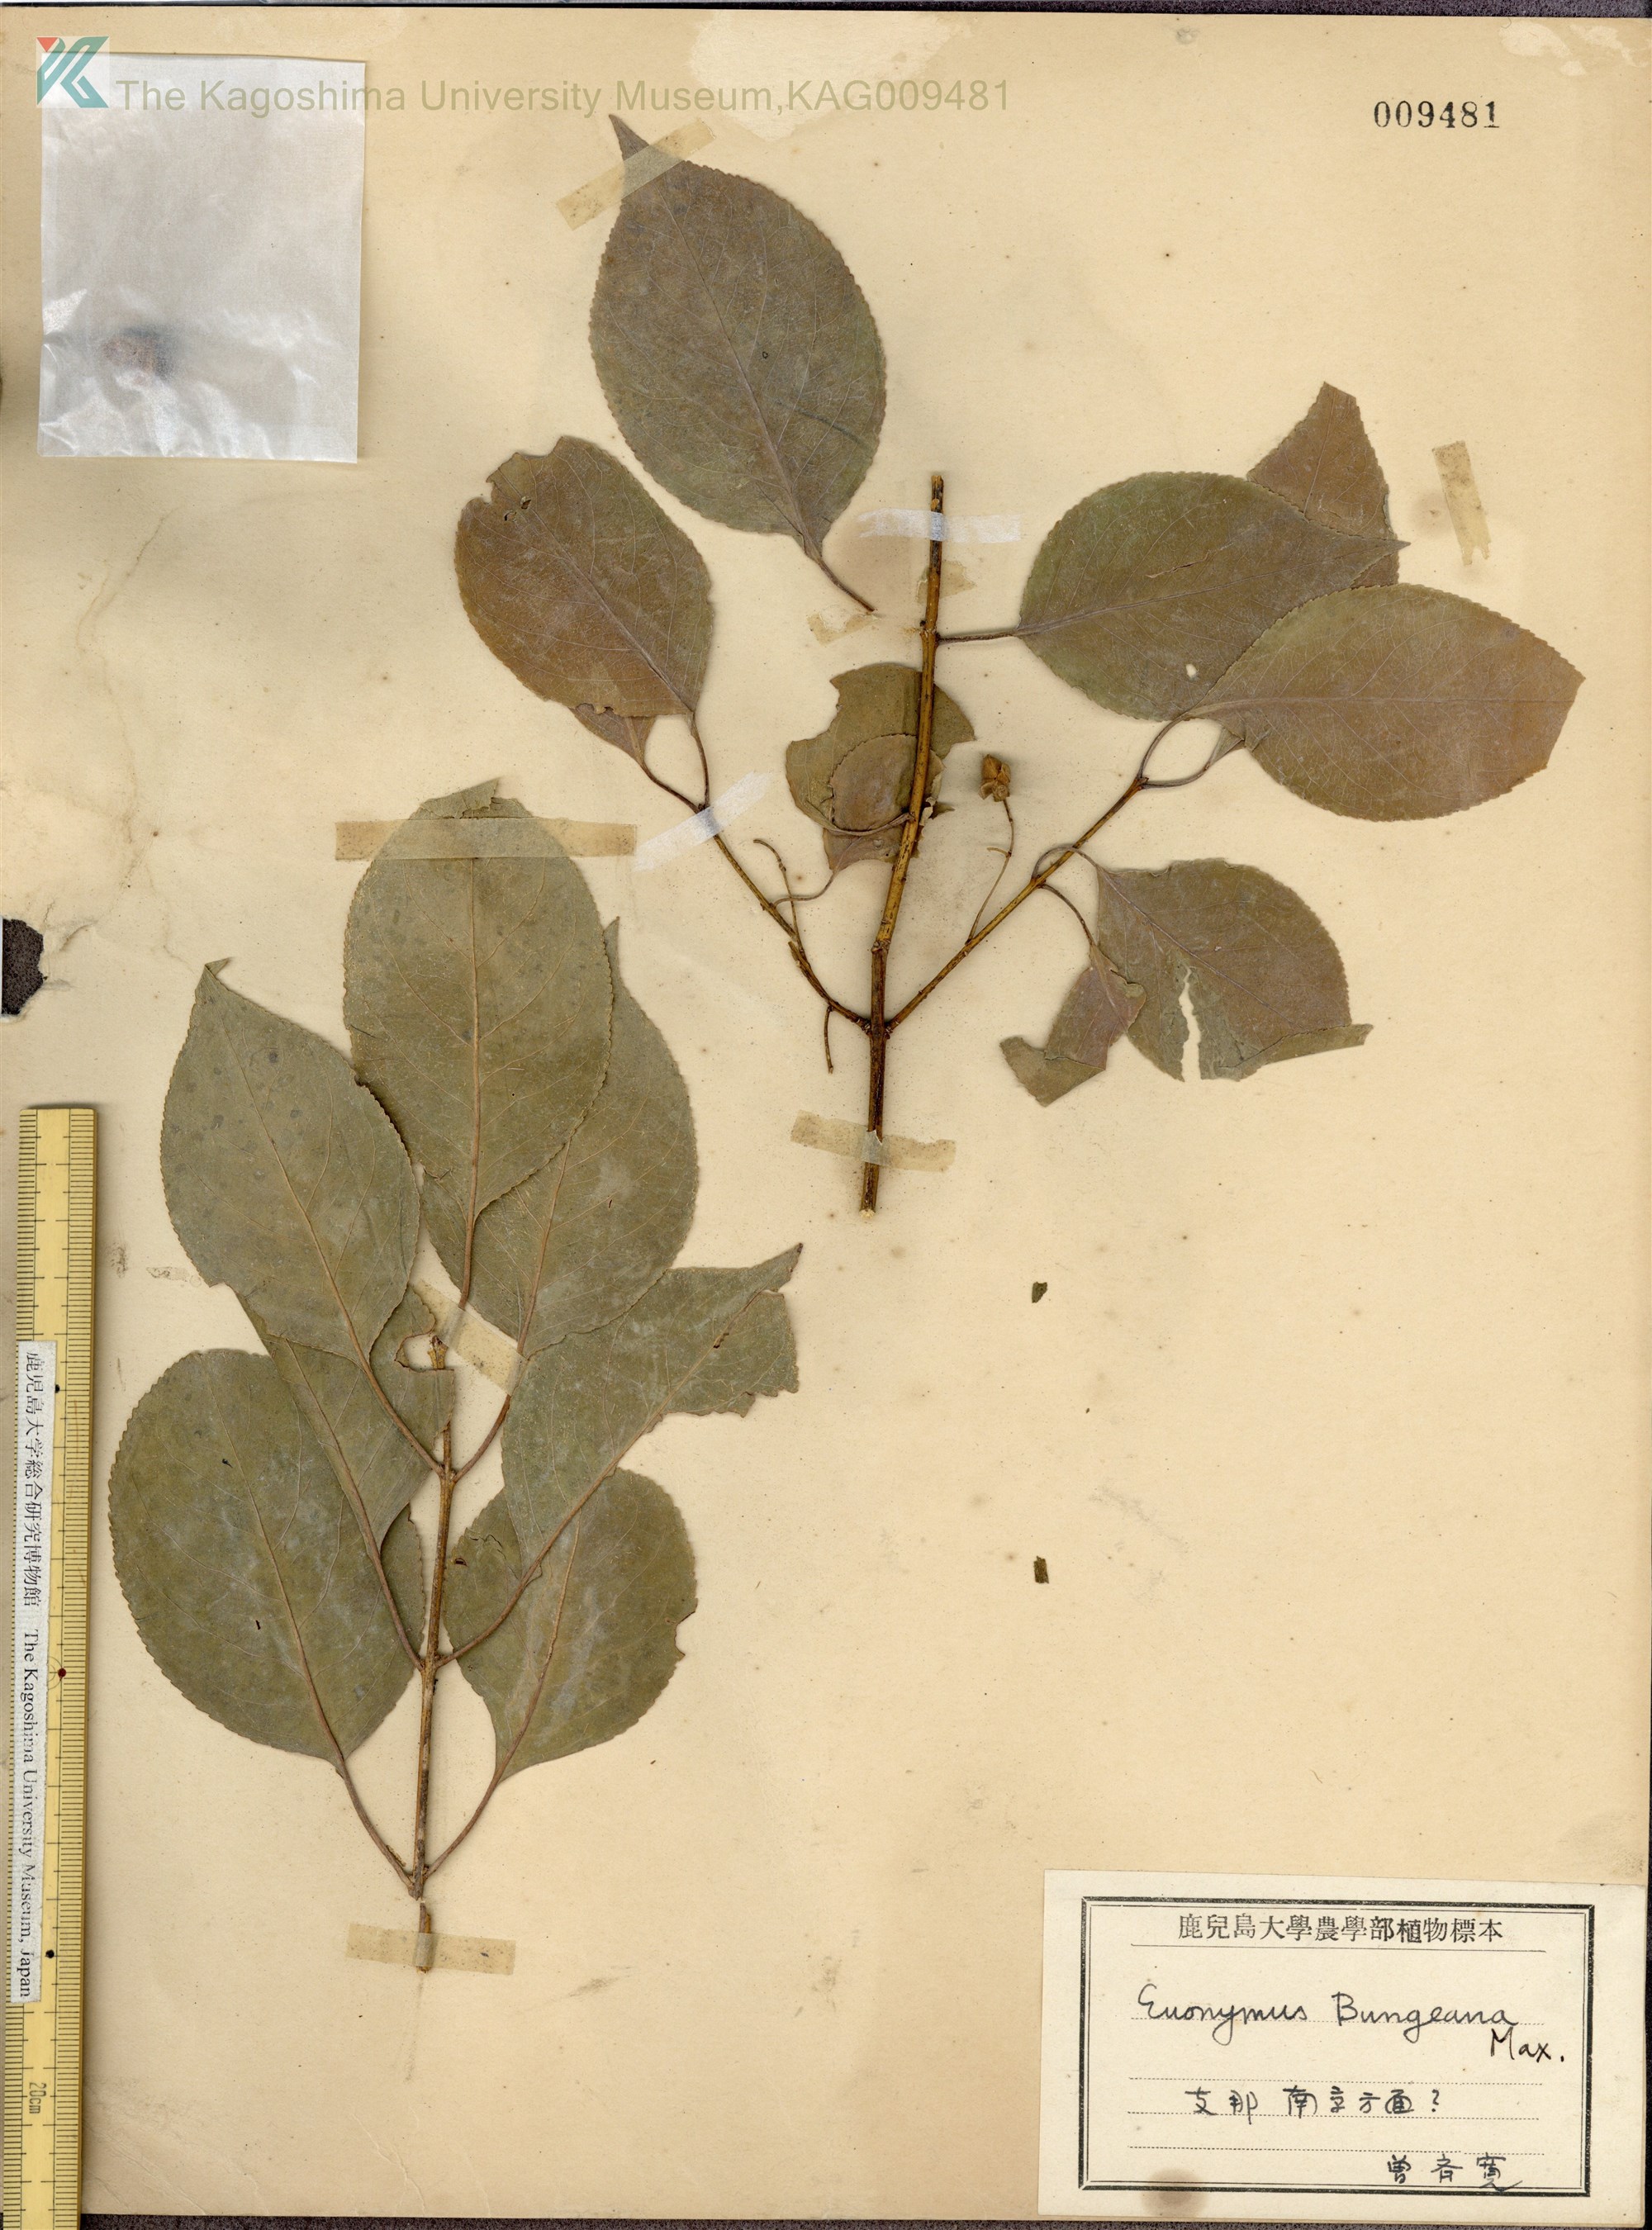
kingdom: Plantae
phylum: Tracheophyta
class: Magnoliopsida
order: Celastrales
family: Celastraceae
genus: Euonymus
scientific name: Euonymus maackii
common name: Hamilton's spindletree
